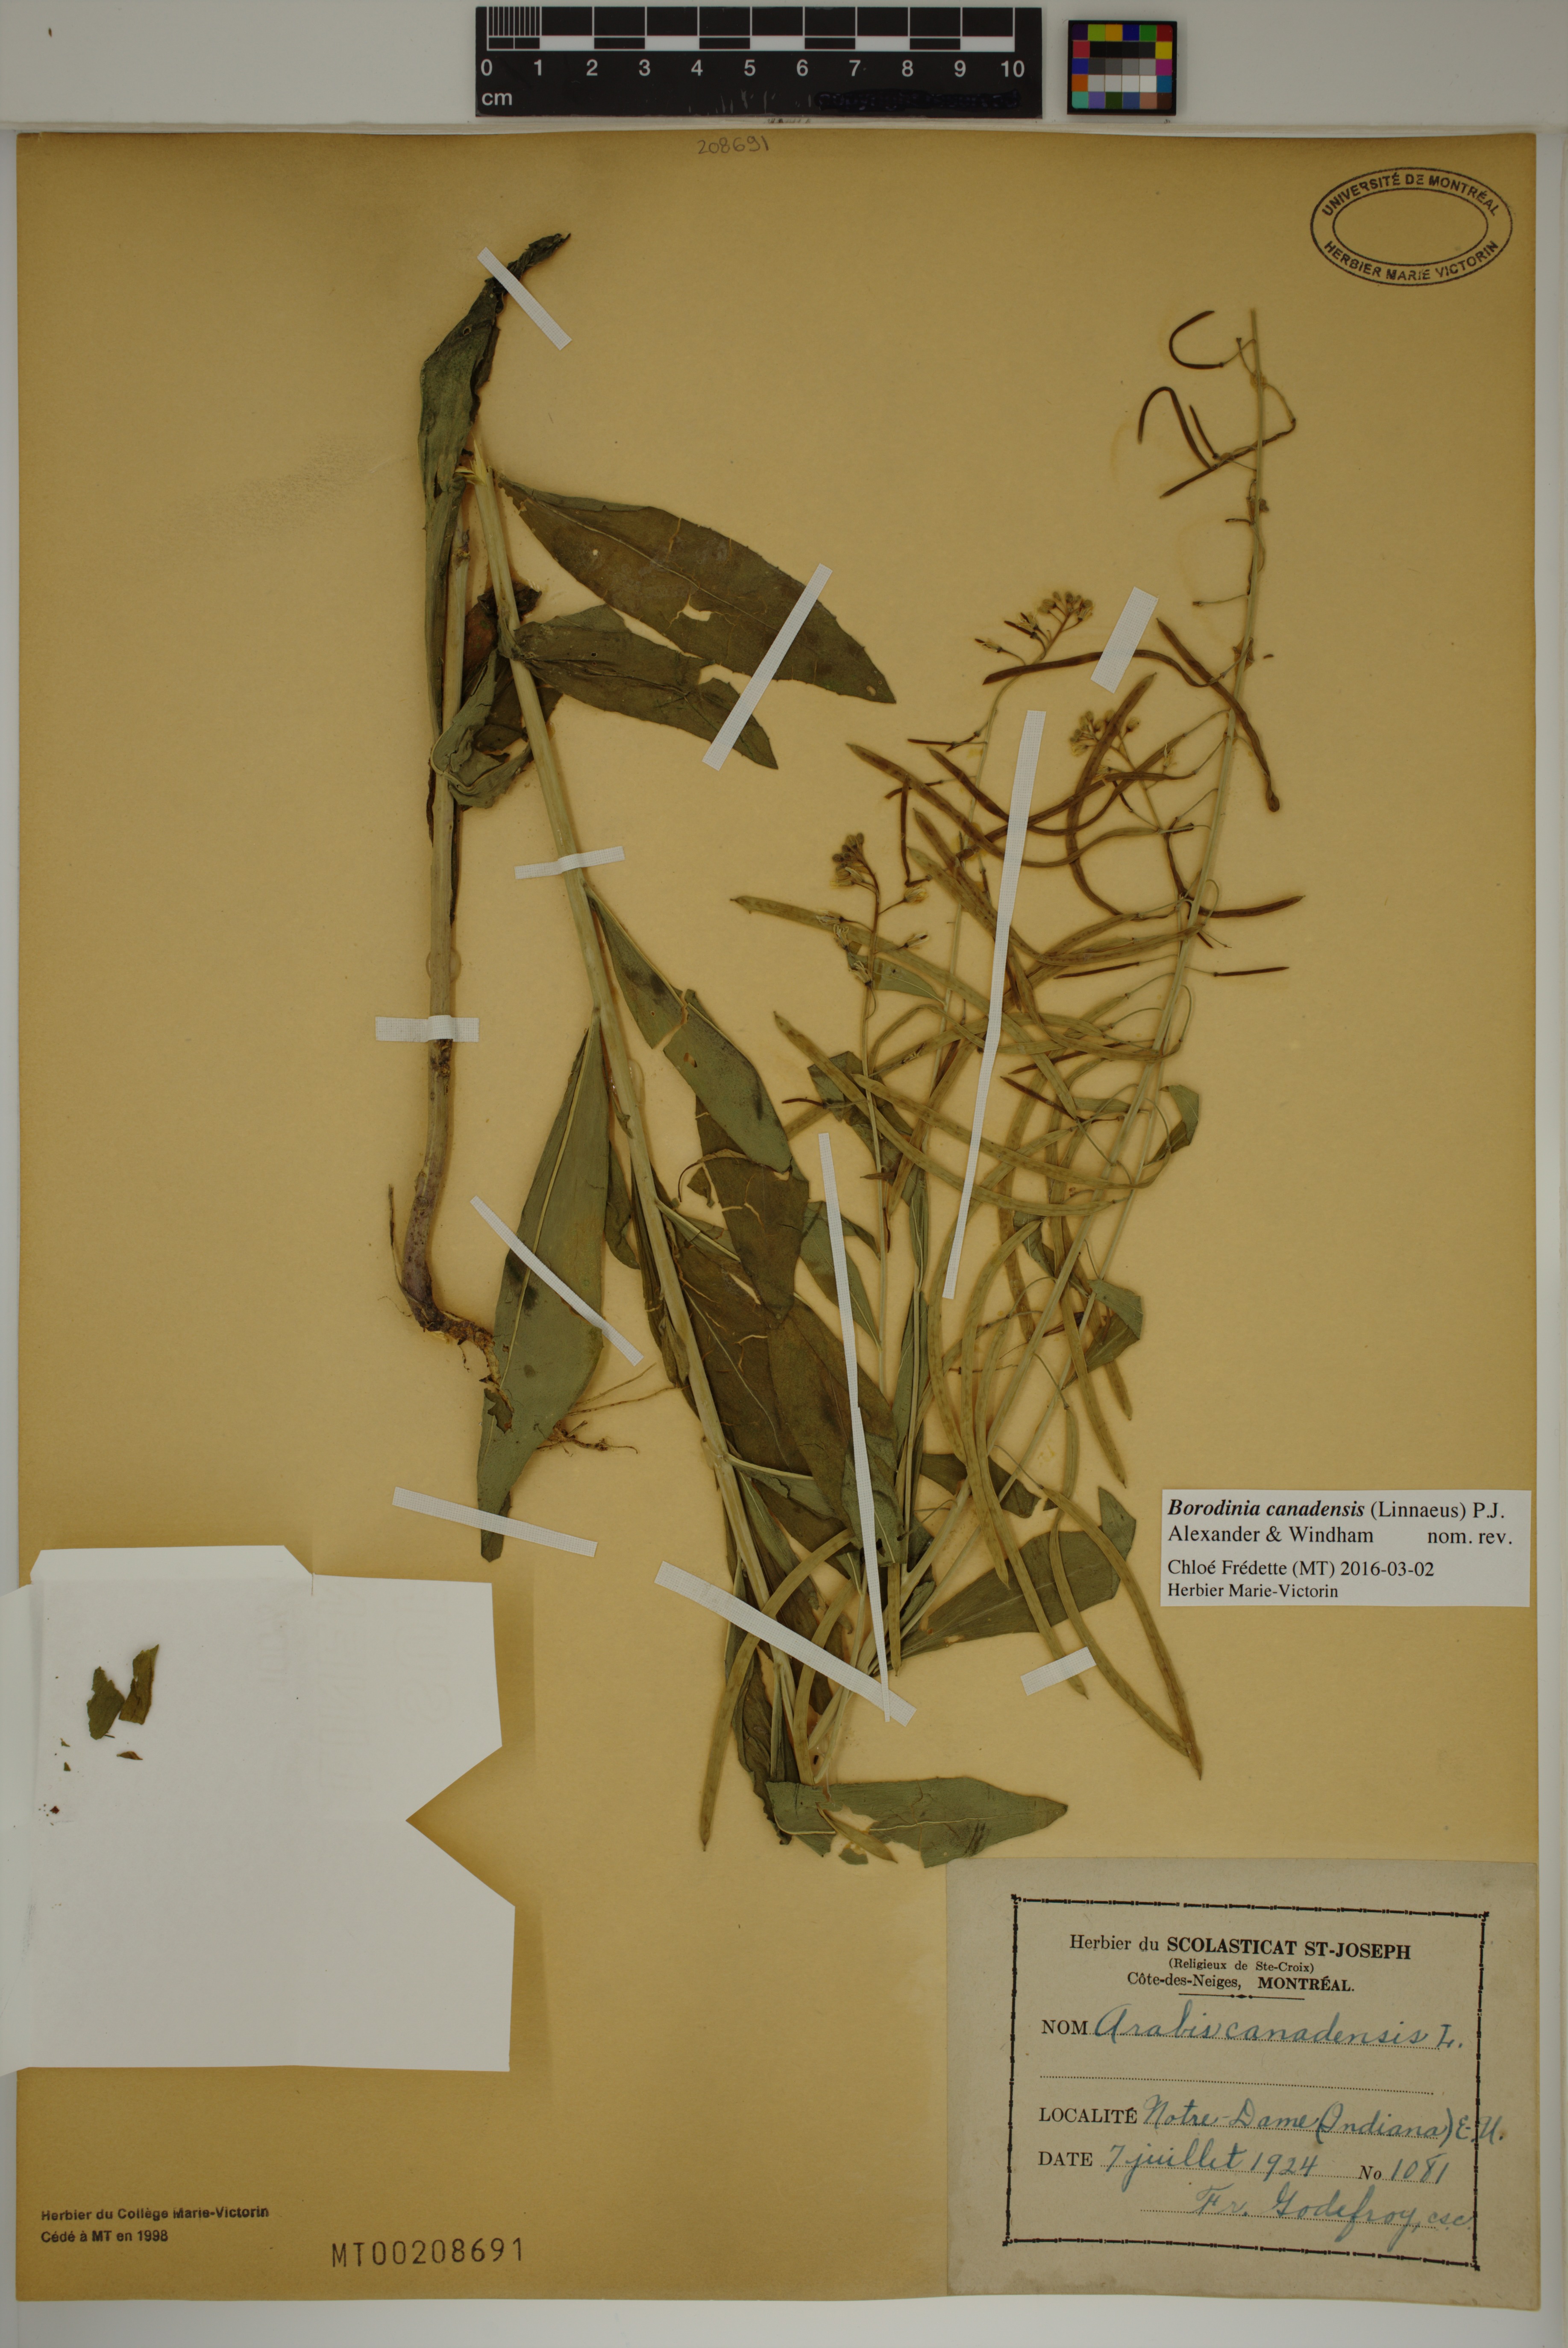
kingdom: Plantae
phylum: Tracheophyta
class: Magnoliopsida
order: Brassicales
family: Brassicaceae
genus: Borodinia
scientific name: Borodinia canadensis
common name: Sicklepod
